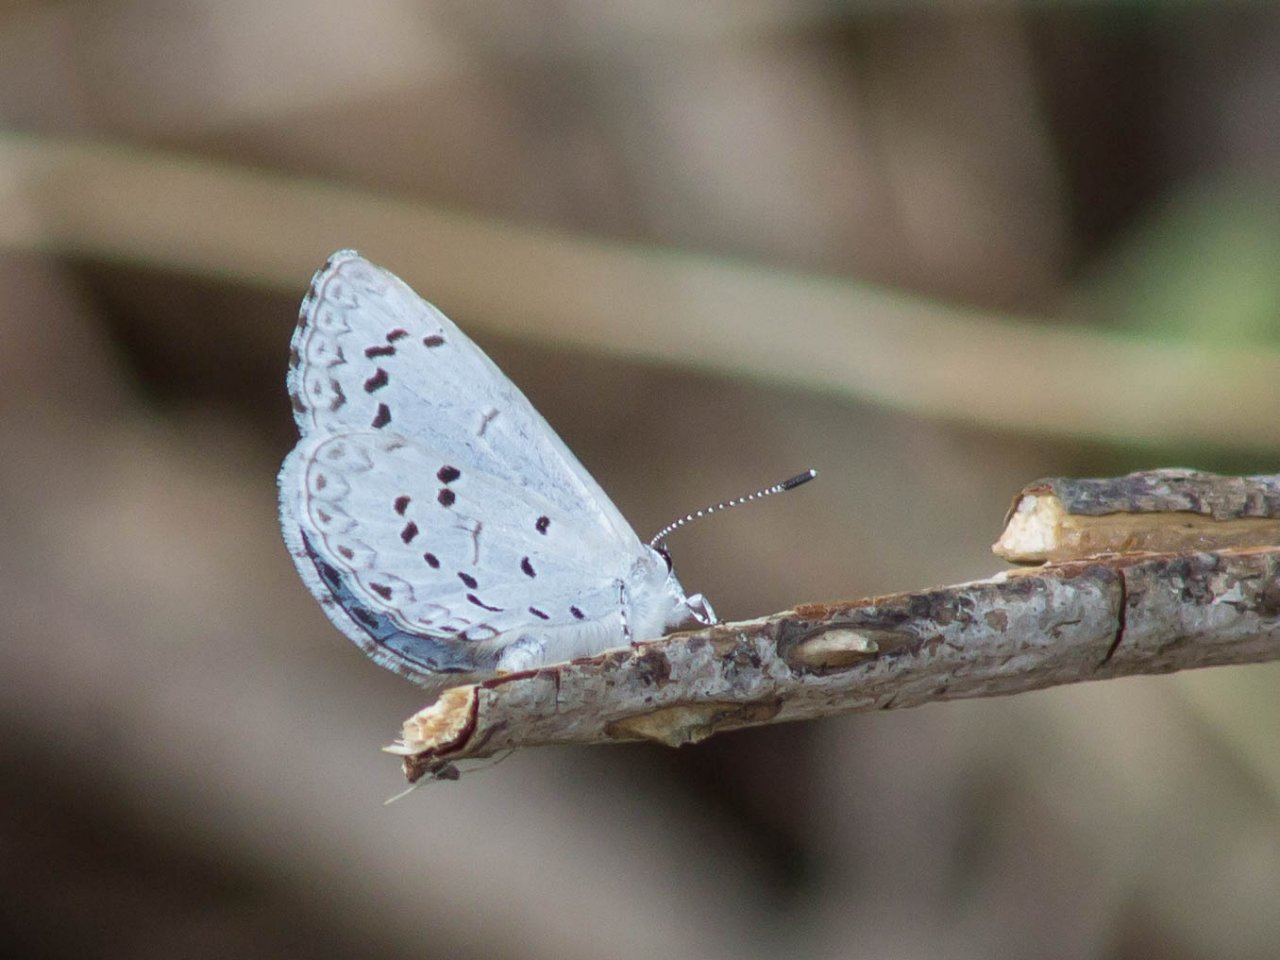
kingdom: Animalia
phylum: Arthropoda
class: Insecta
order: Lepidoptera
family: Lycaenidae
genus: Cyaniris
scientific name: Cyaniris neglecta
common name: Summer Azure
